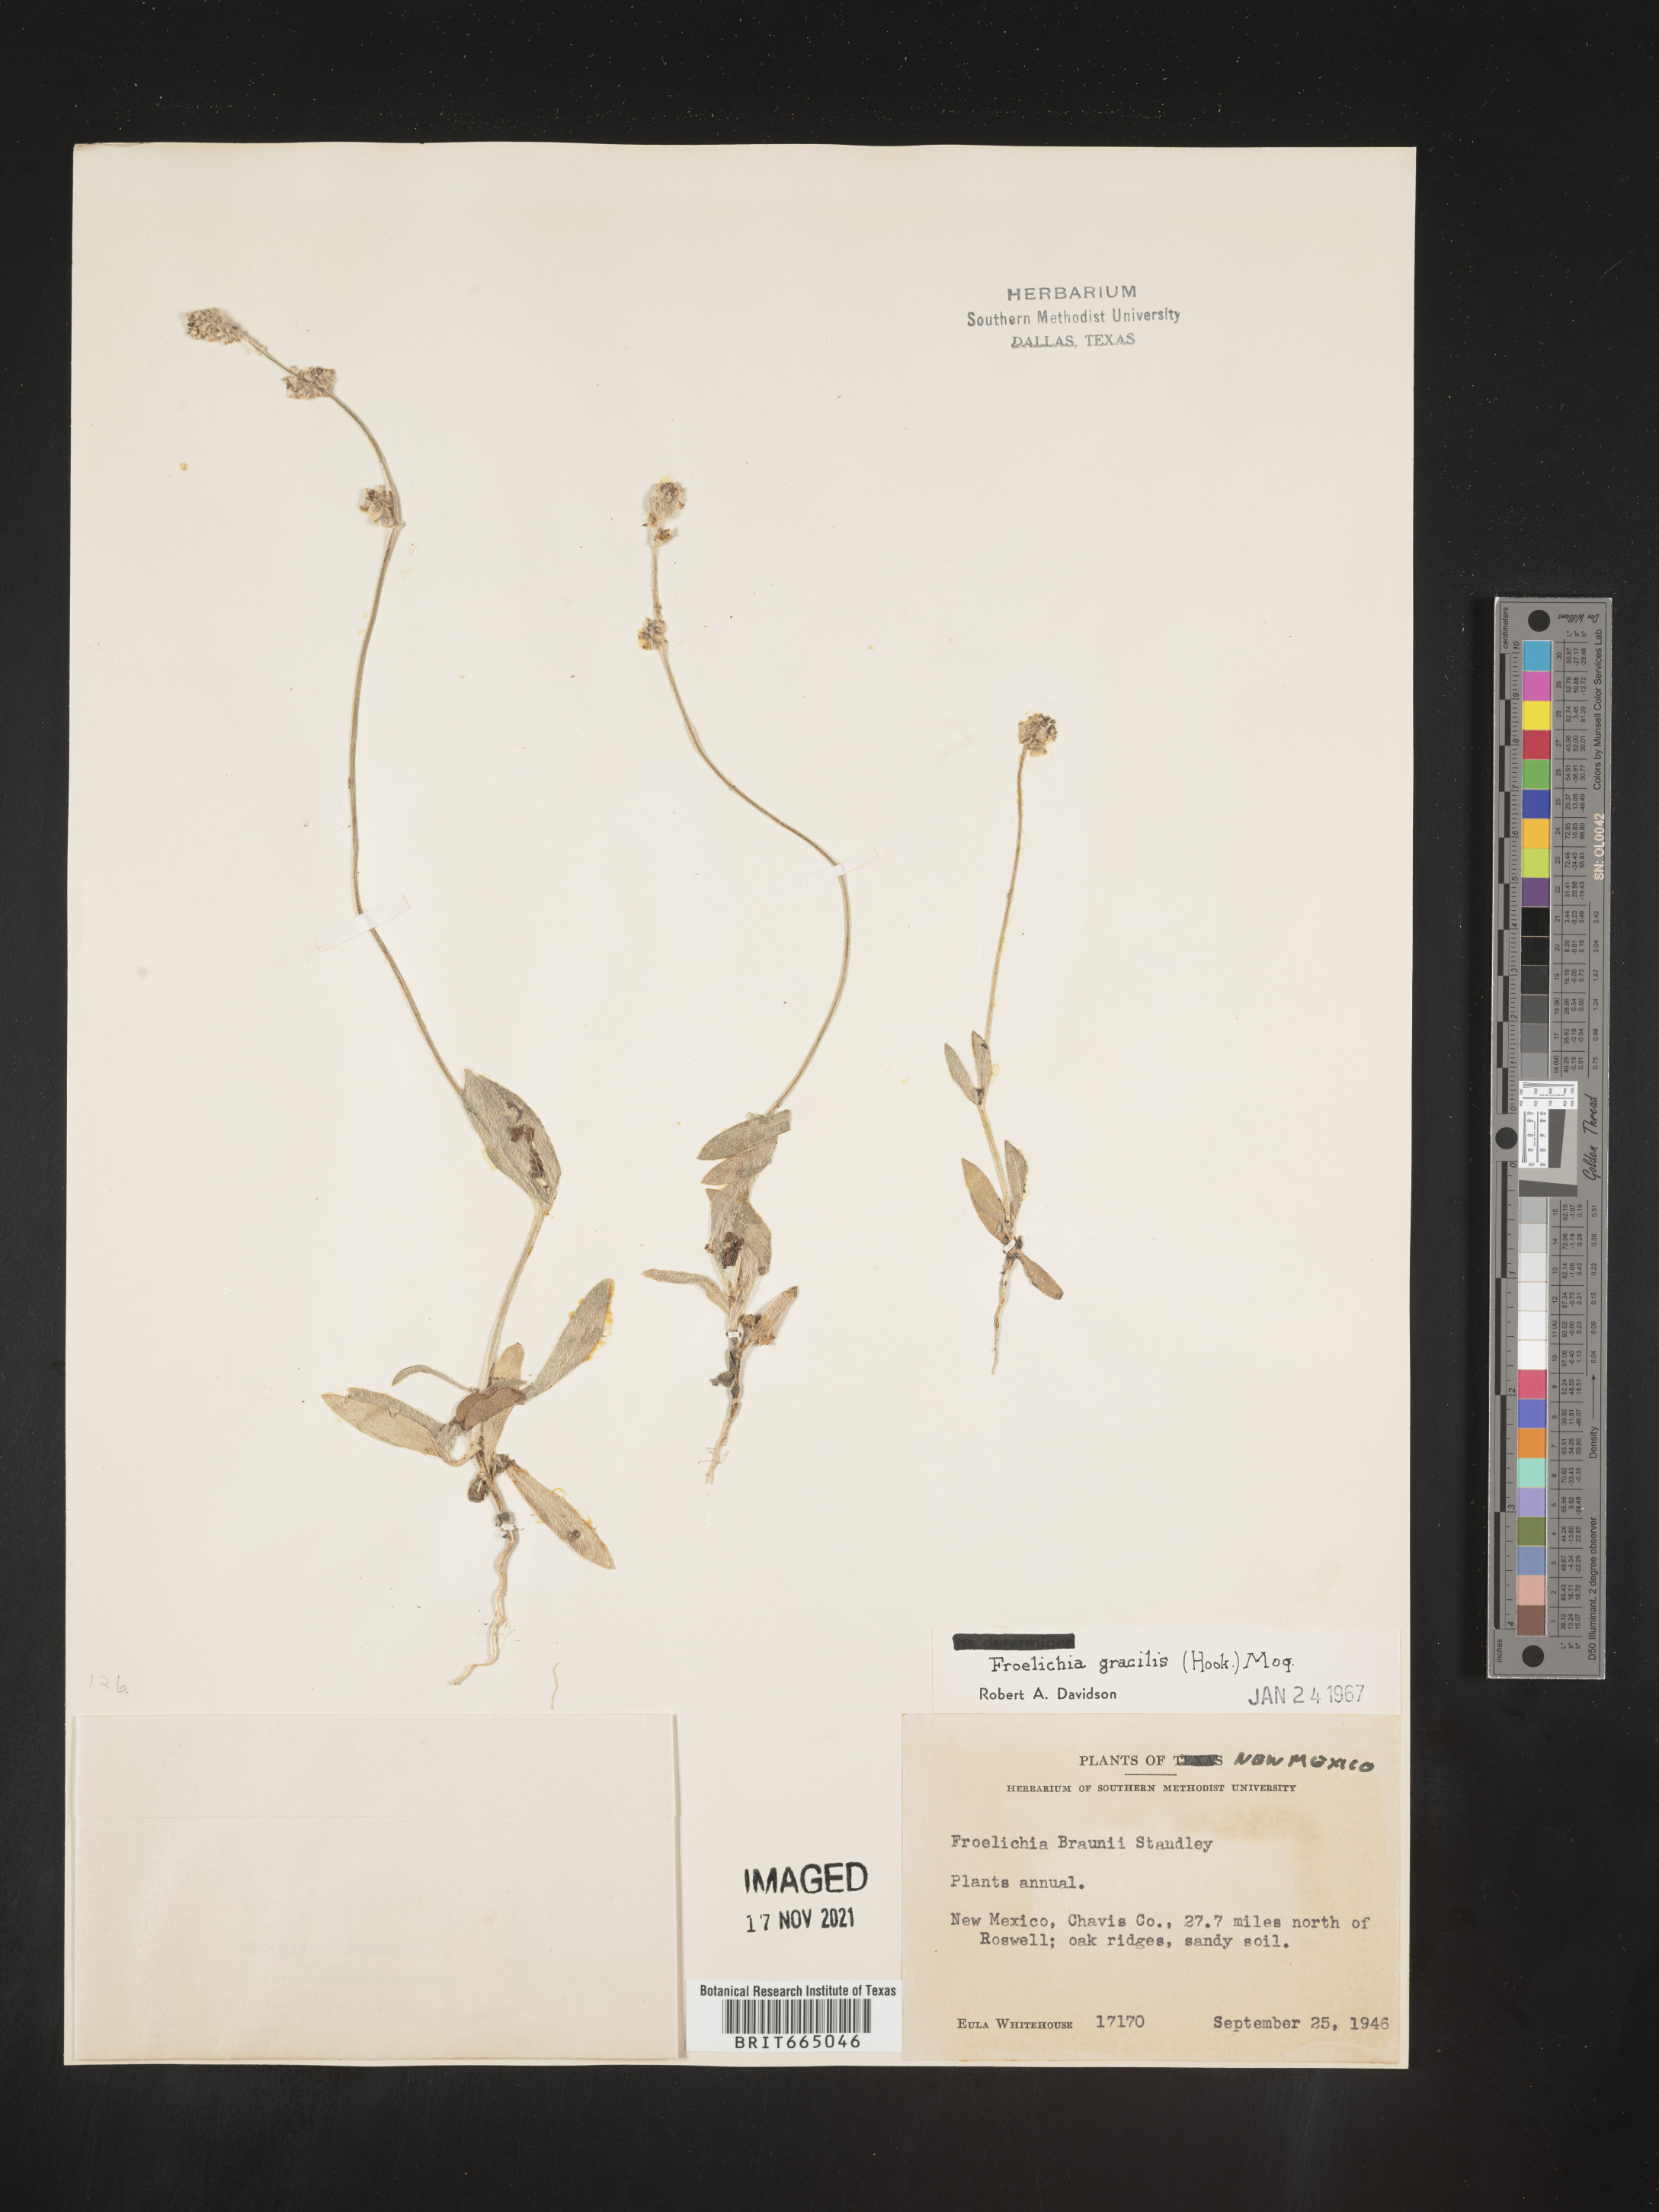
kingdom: Plantae
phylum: Tracheophyta
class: Magnoliopsida
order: Caryophyllales
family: Amaranthaceae
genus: Froelichia
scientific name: Froelichia gracilis
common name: Slender cottonweed
